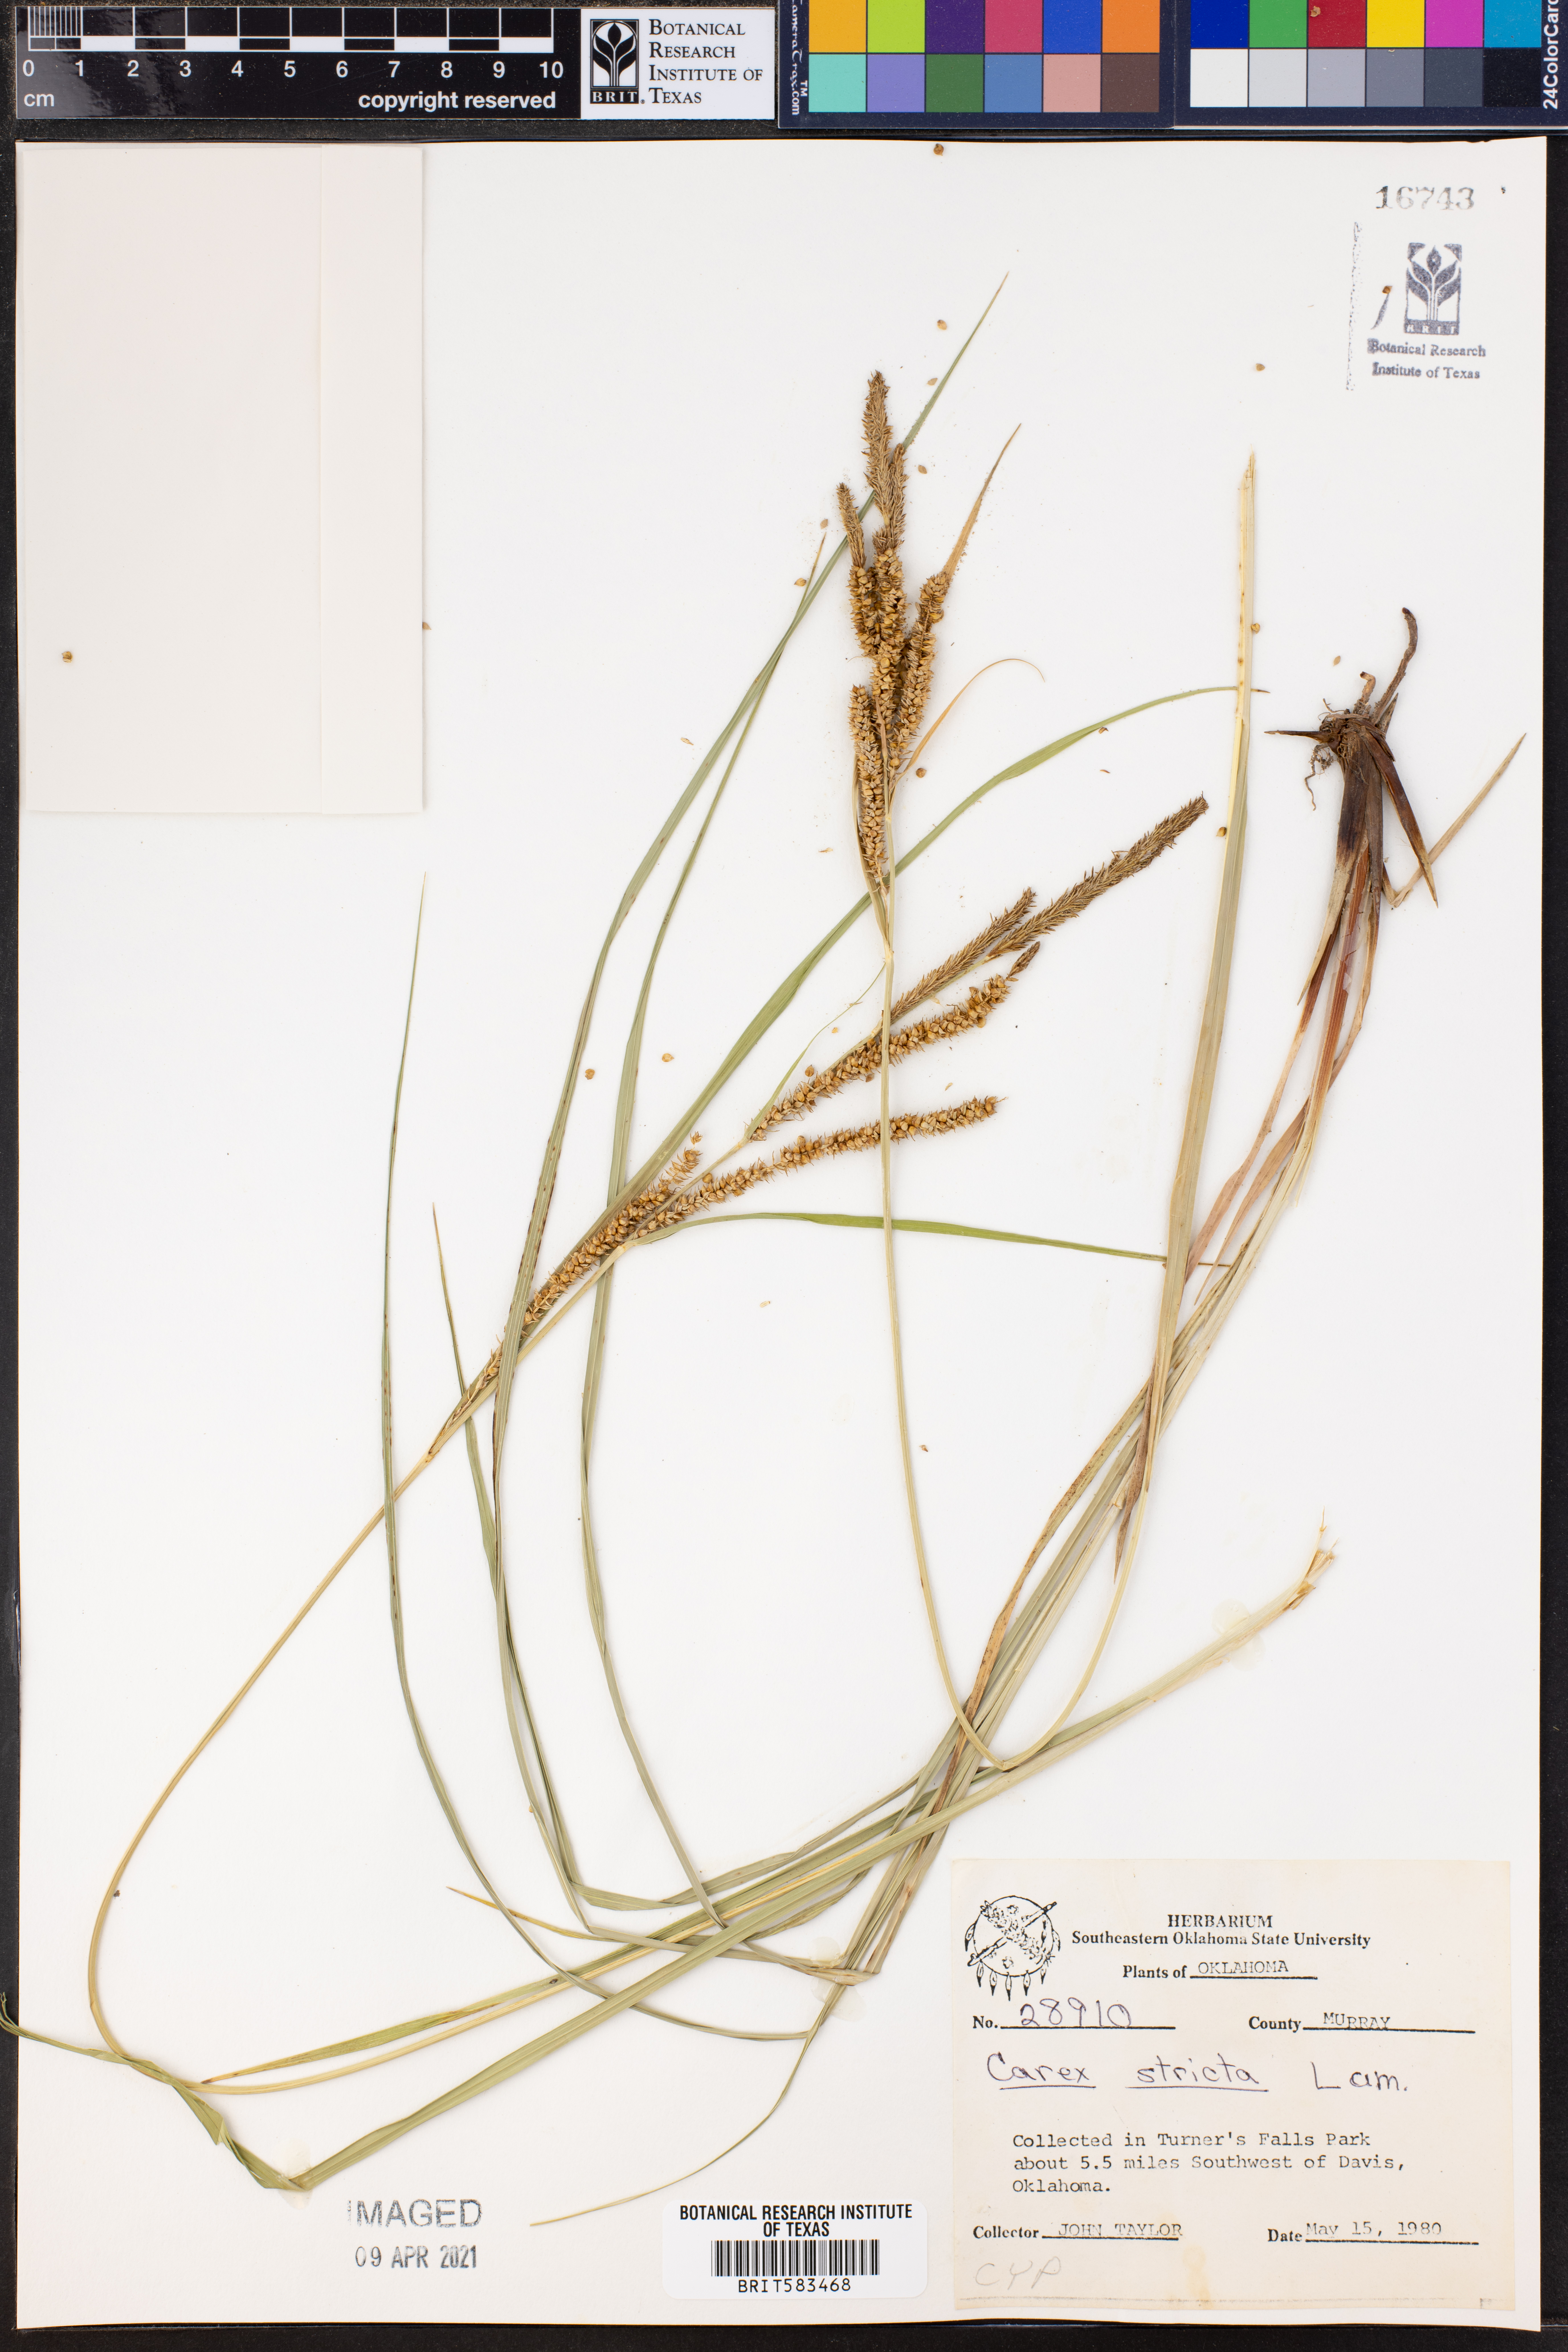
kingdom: Plantae
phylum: Tracheophyta
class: Liliopsida
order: Poales
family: Cyperaceae
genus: Carex
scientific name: Carex stricta
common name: Hummock sedge
